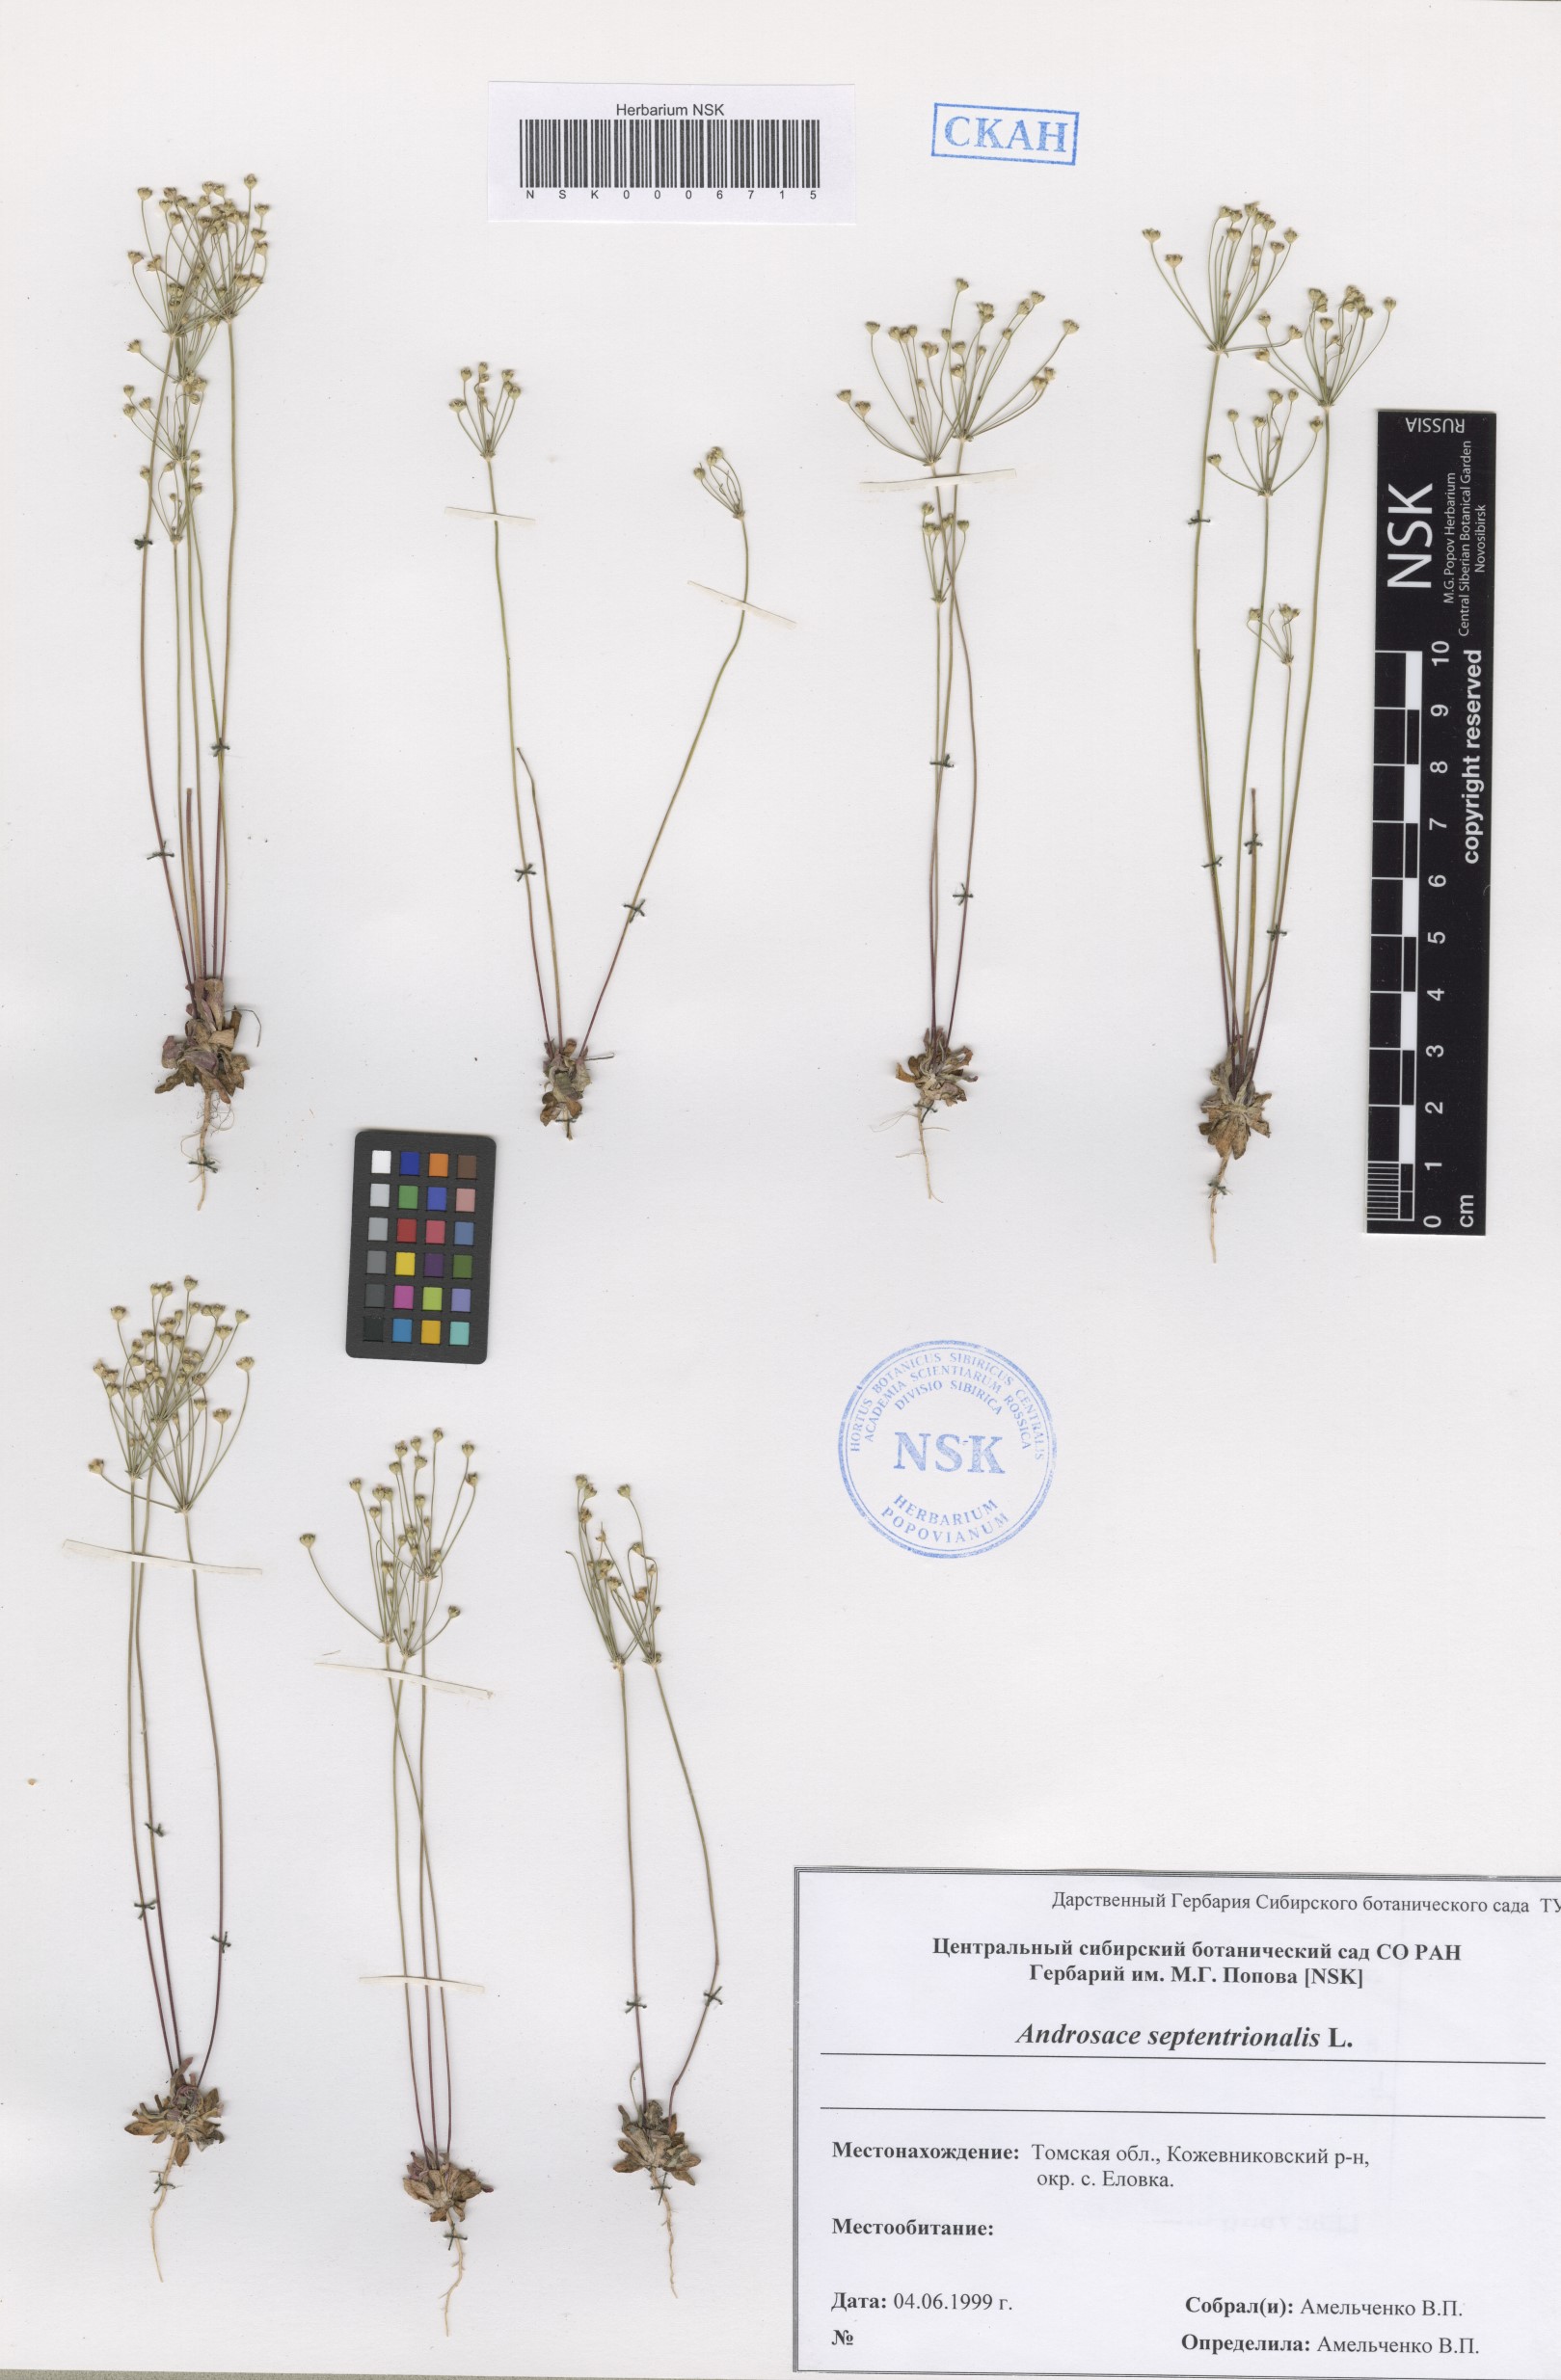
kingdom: Plantae
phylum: Tracheophyta
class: Magnoliopsida
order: Ericales
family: Primulaceae
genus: Androsace
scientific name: Androsace septentrionalis
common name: Hairy northern fairy-candelabra
